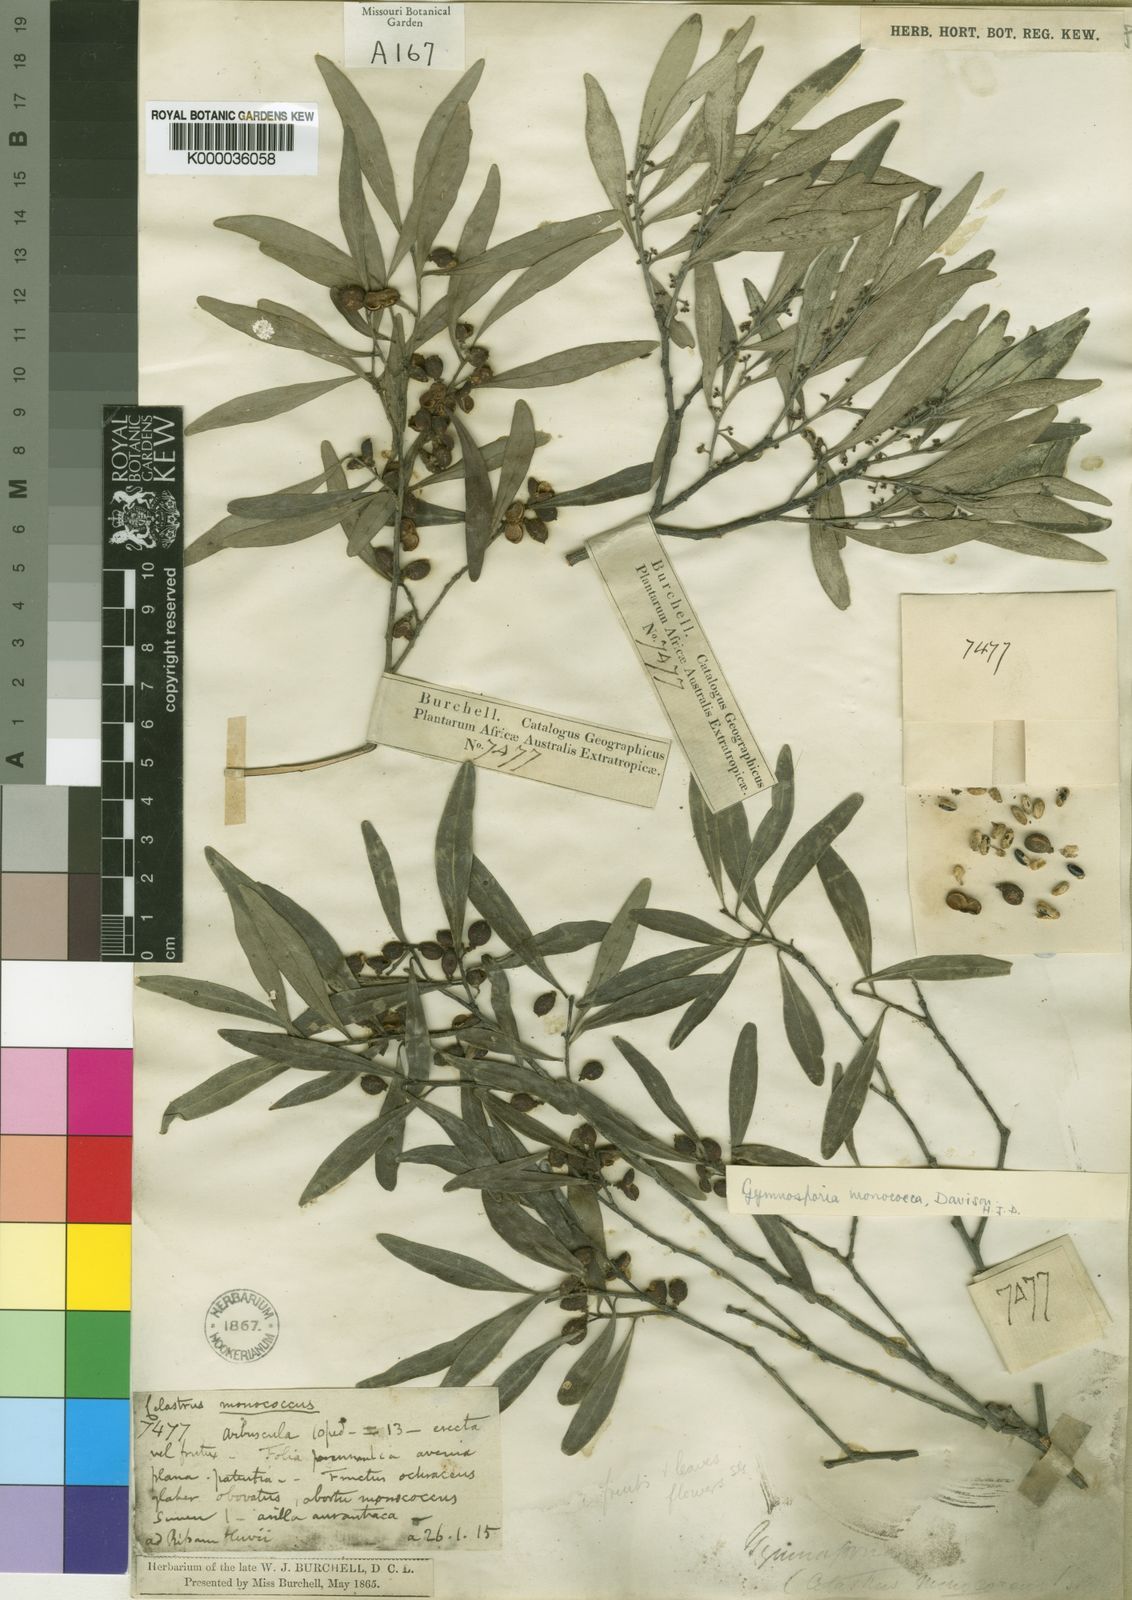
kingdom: Plantae
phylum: Tracheophyta
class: Magnoliopsida
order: Celastrales
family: Celastraceae
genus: Gymnosporia
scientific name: Gymnosporia oleosa
